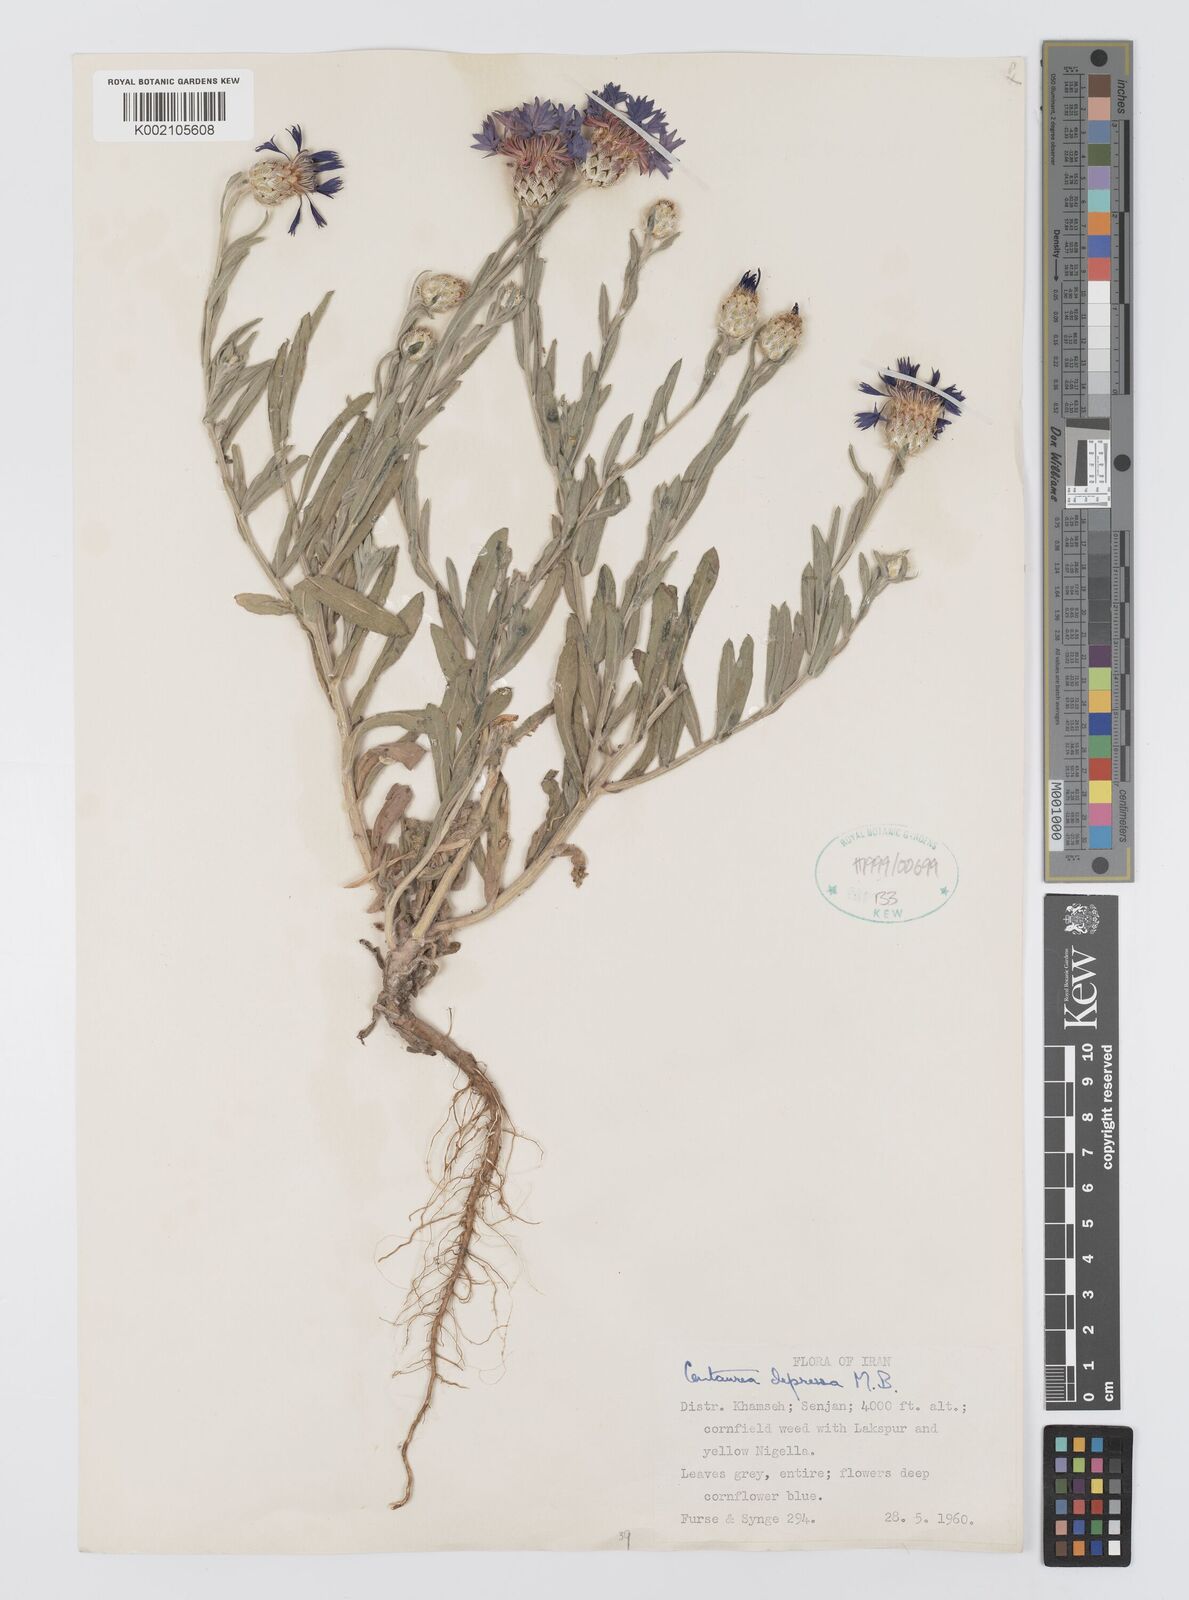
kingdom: Plantae
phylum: Tracheophyta
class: Magnoliopsida
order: Asterales
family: Asteraceae
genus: Centaurea
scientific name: Centaurea depressa
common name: Iranian knapweed
